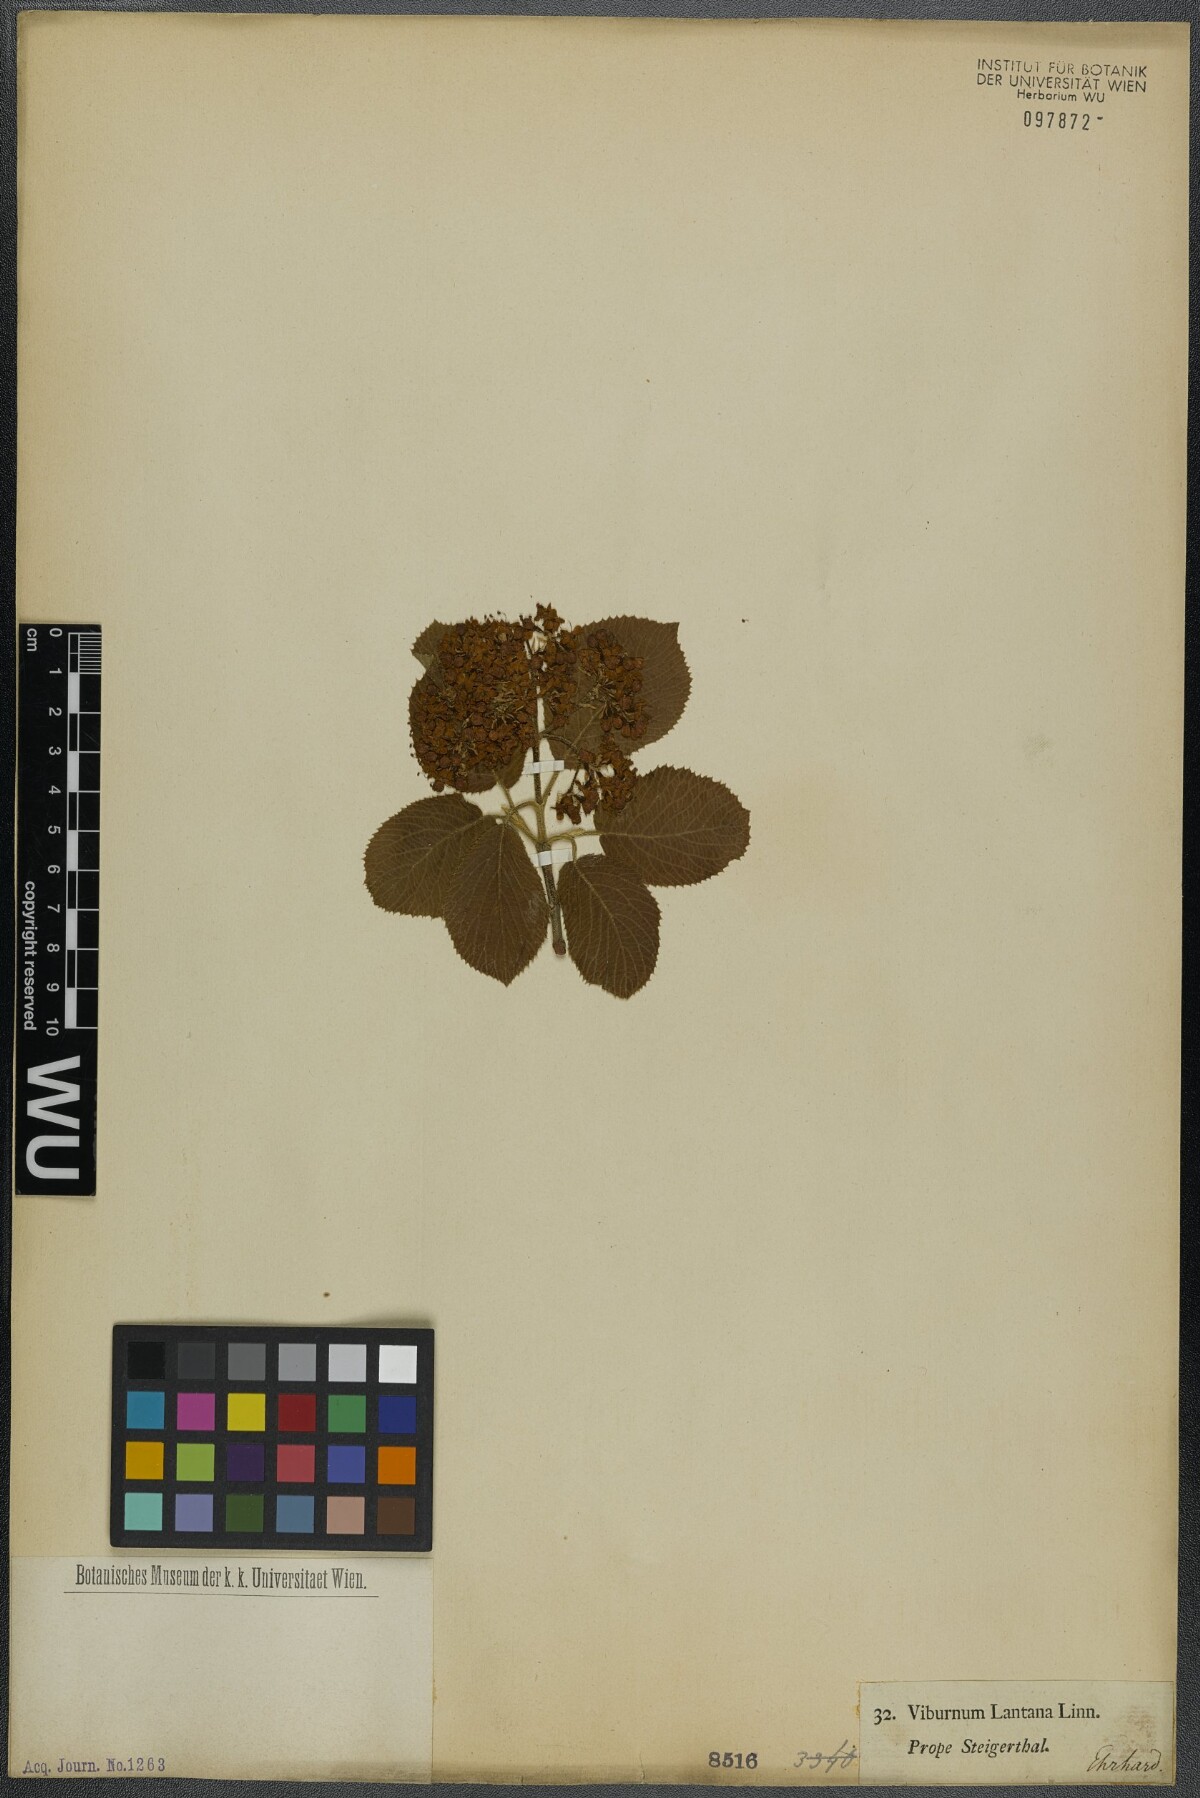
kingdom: Plantae
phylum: Tracheophyta
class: Magnoliopsida
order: Dipsacales
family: Viburnaceae
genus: Viburnum
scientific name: Viburnum lantana
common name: Wayfaring tree
